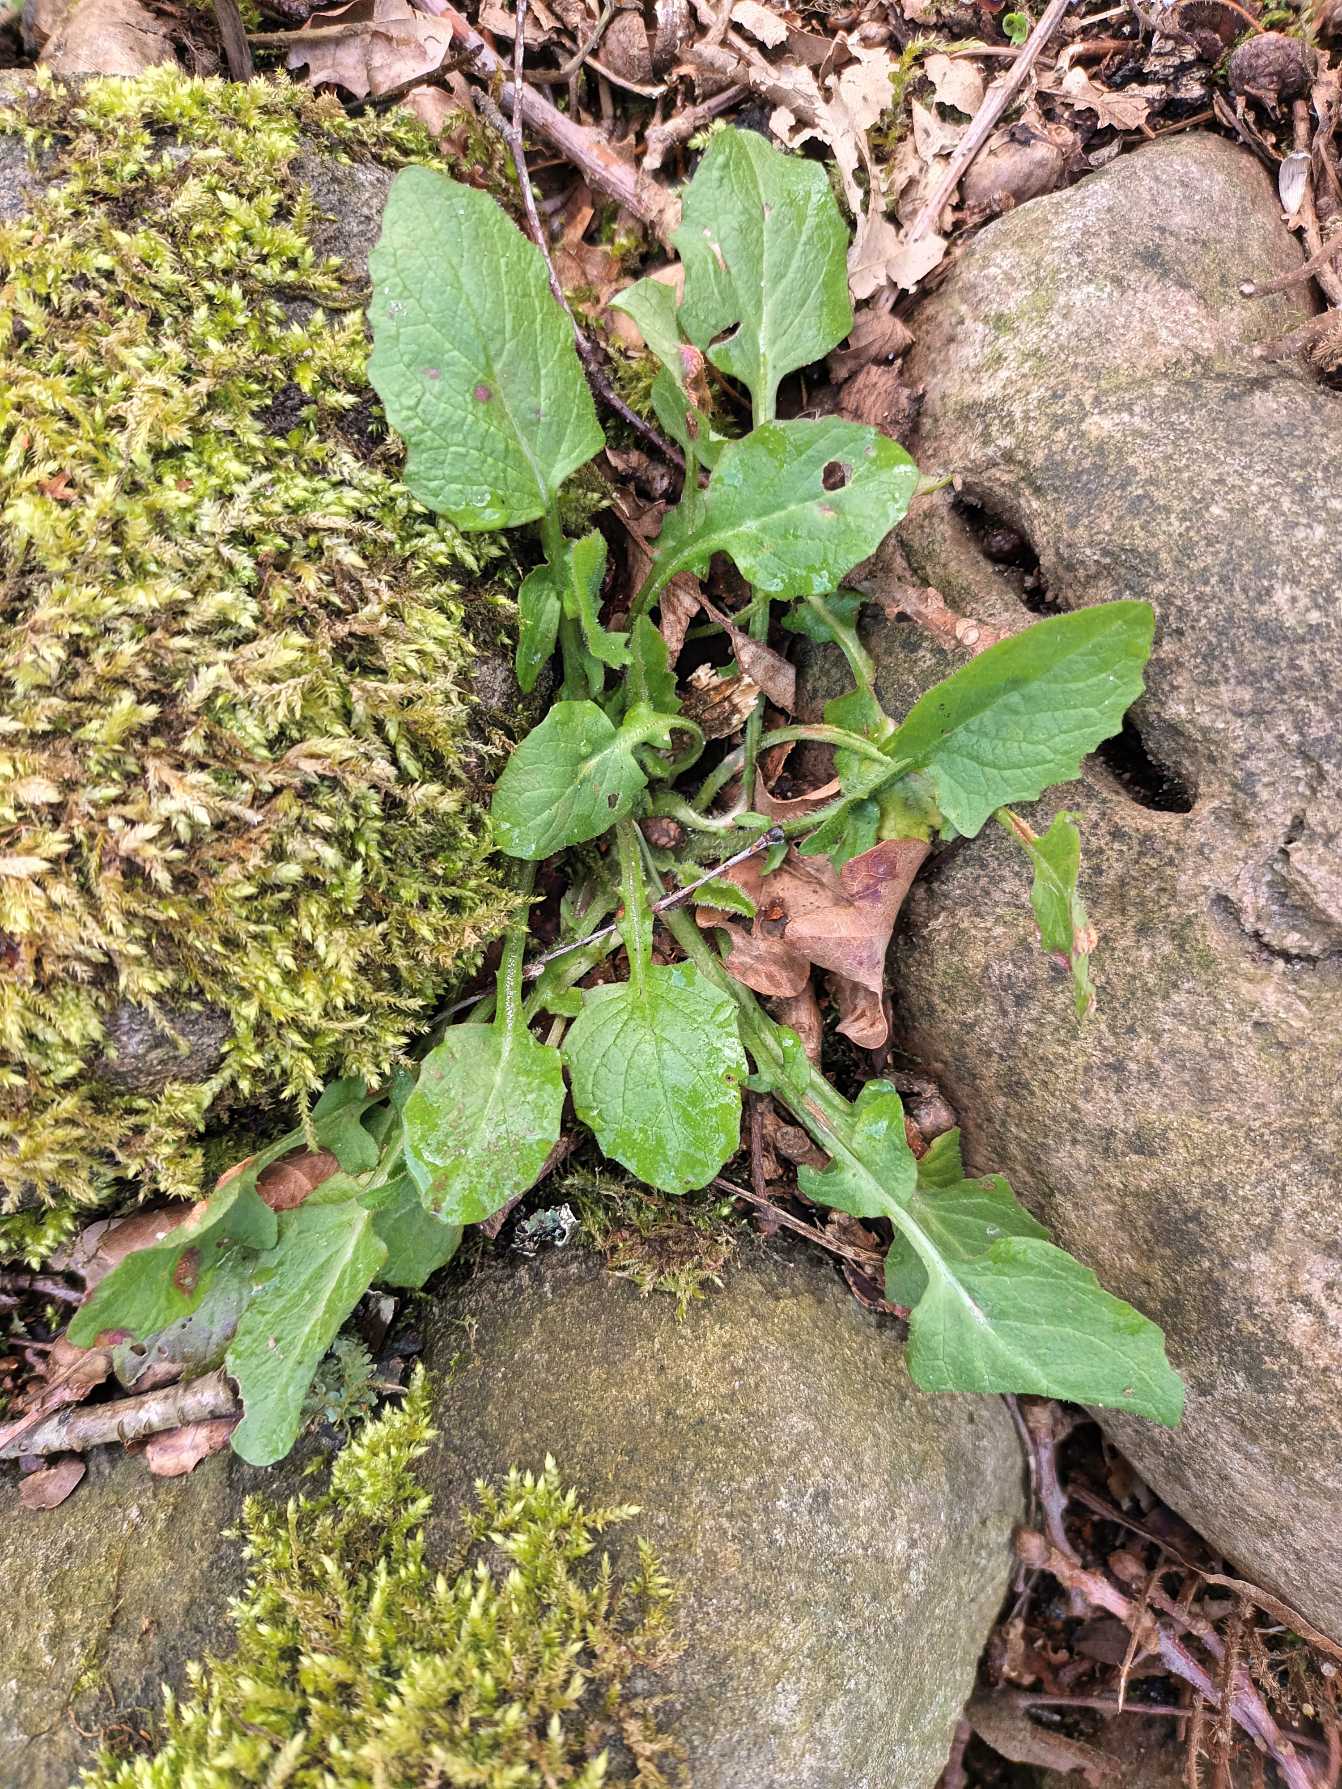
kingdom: Plantae
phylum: Tracheophyta
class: Magnoliopsida
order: Asterales
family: Asteraceae
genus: Lapsana
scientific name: Lapsana communis
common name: Haremad
